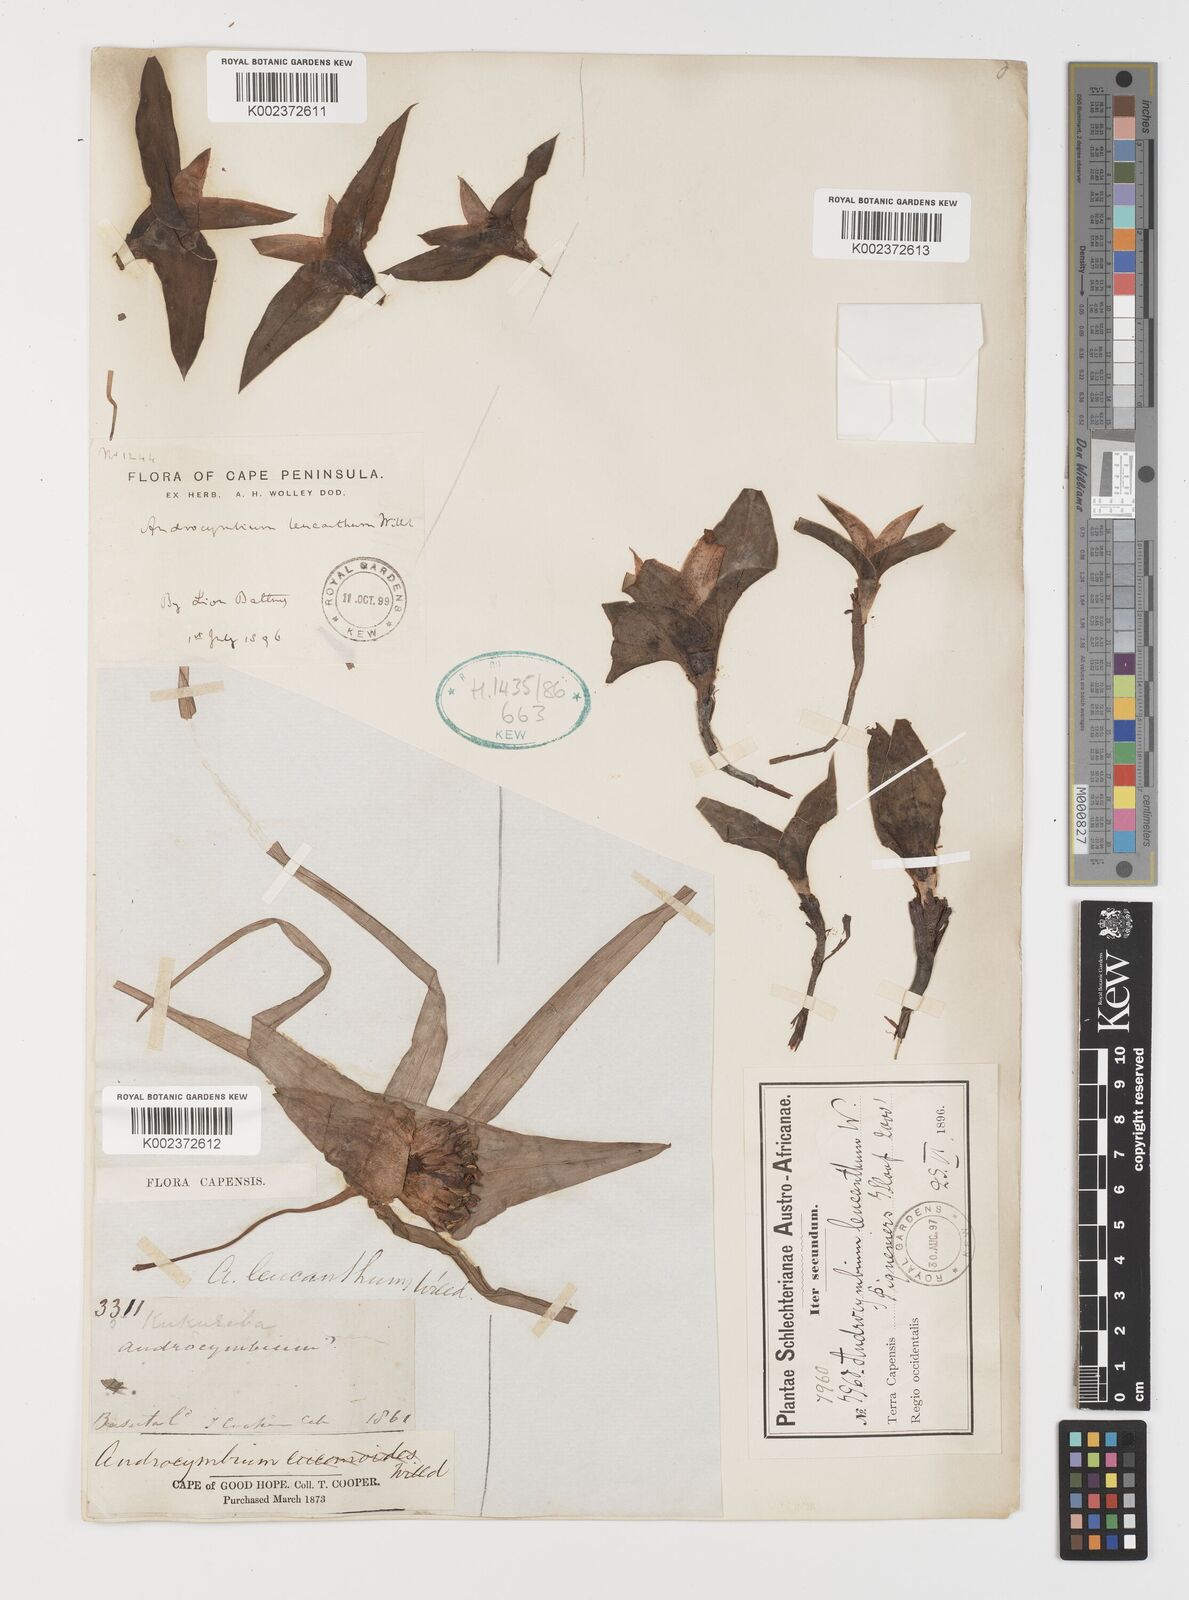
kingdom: Plantae
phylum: Tracheophyta
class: Liliopsida
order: Liliales
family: Colchicaceae
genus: Colchicum
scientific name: Colchicum capense
